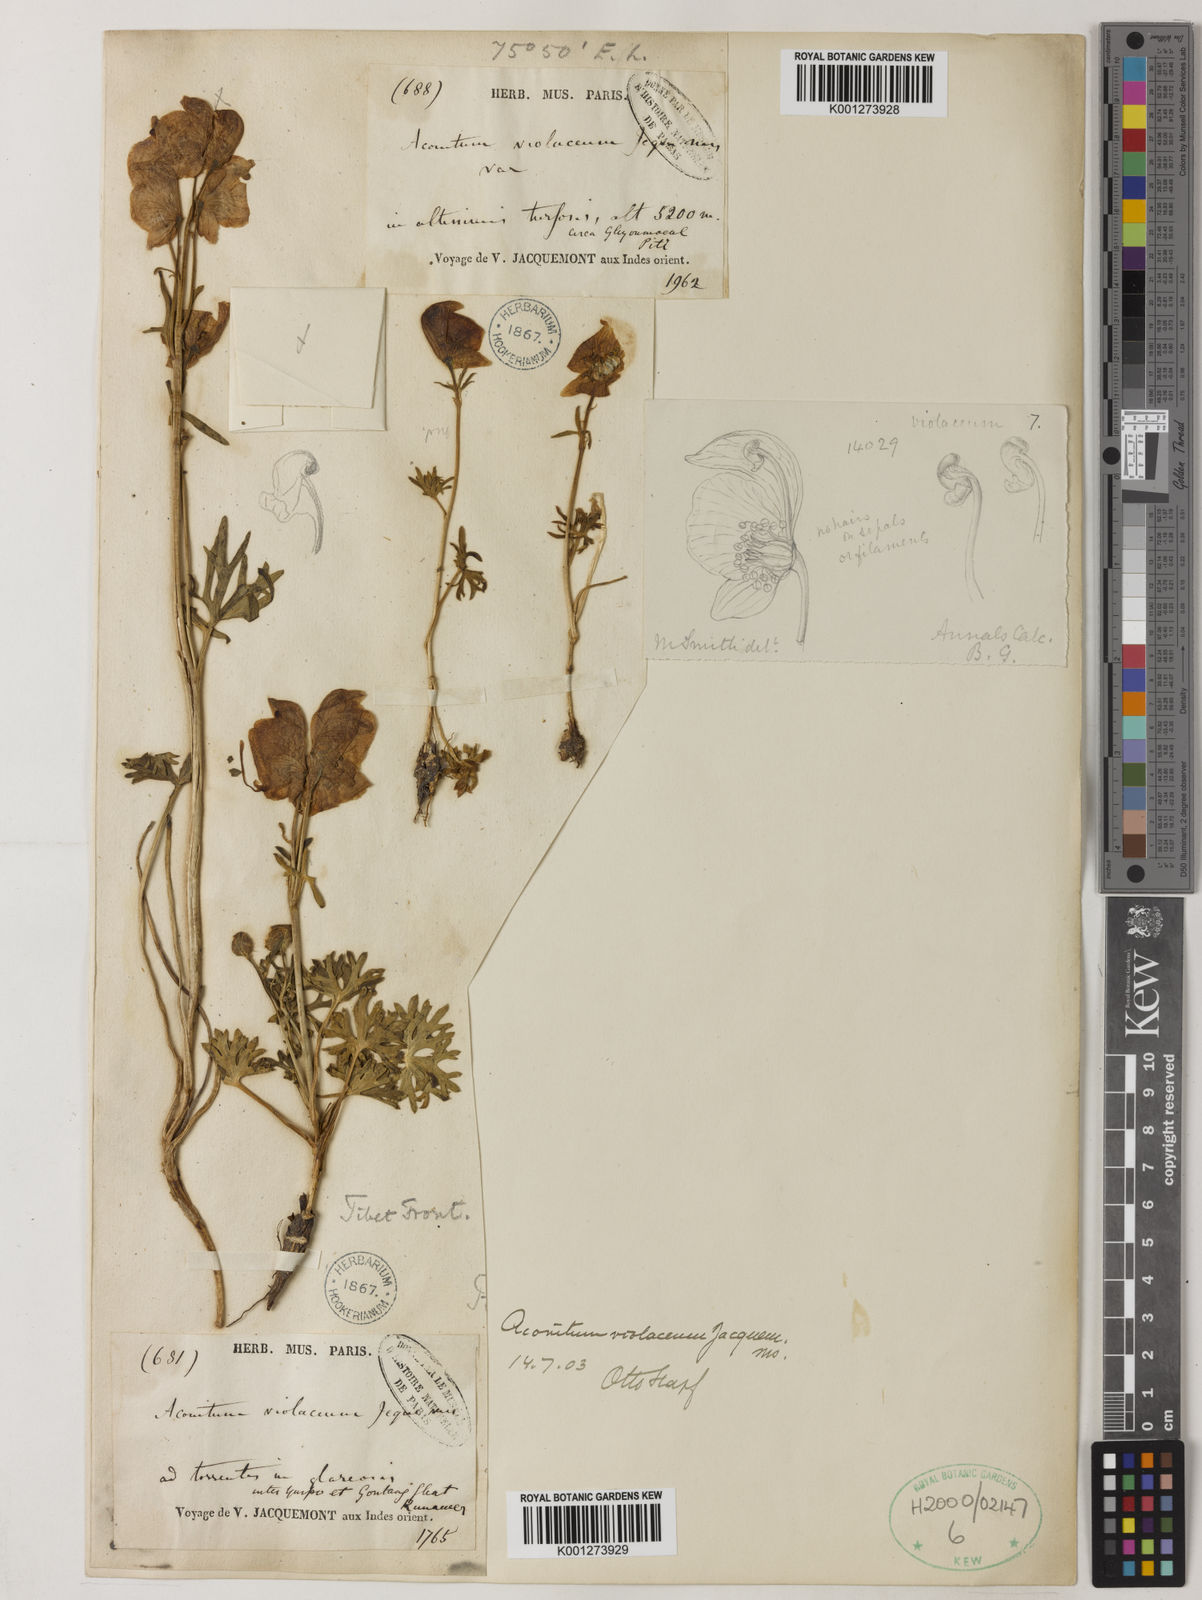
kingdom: Plantae
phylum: Tracheophyta
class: Magnoliopsida
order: Ranunculales
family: Ranunculaceae
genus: Aconitum
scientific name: Aconitum violaceum
